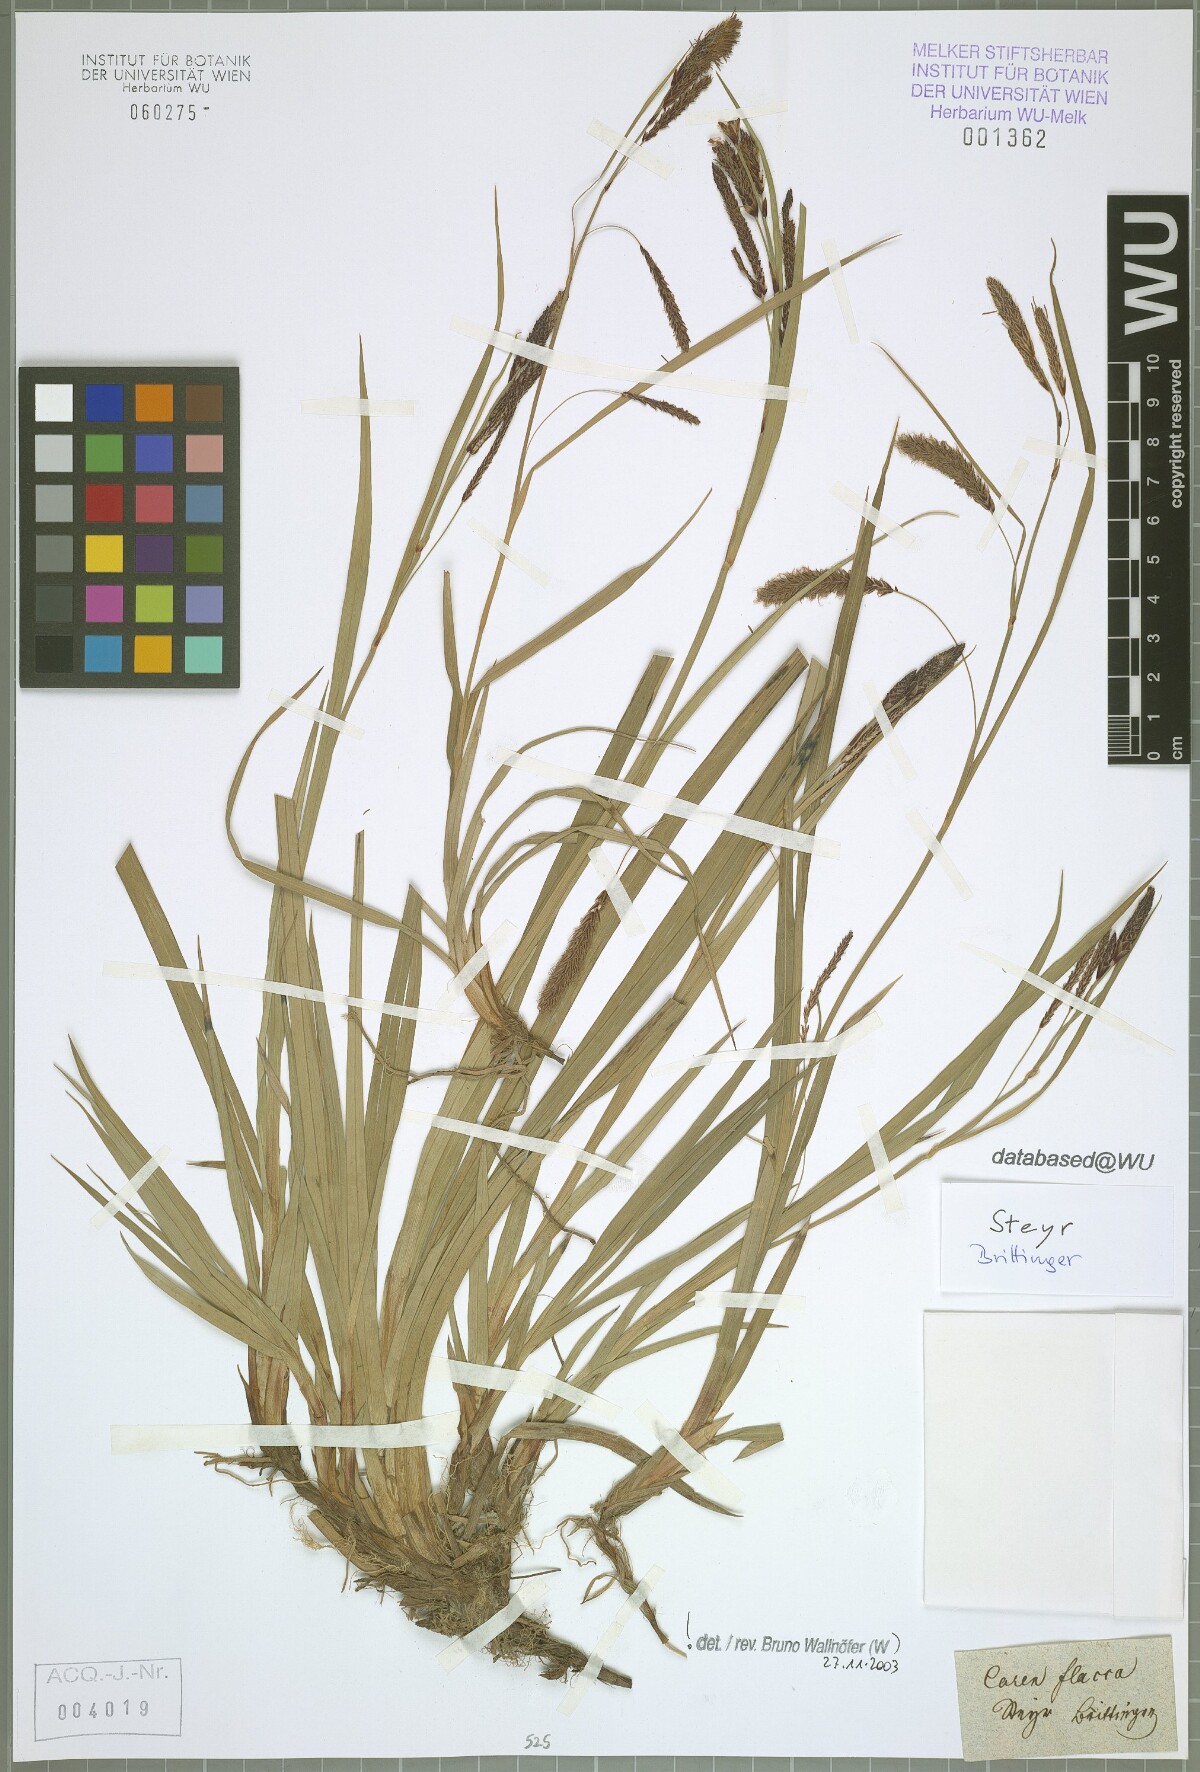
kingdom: Plantae
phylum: Tracheophyta
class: Liliopsida
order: Poales
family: Cyperaceae
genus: Carex
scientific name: Carex flacca
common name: Glaucous sedge
